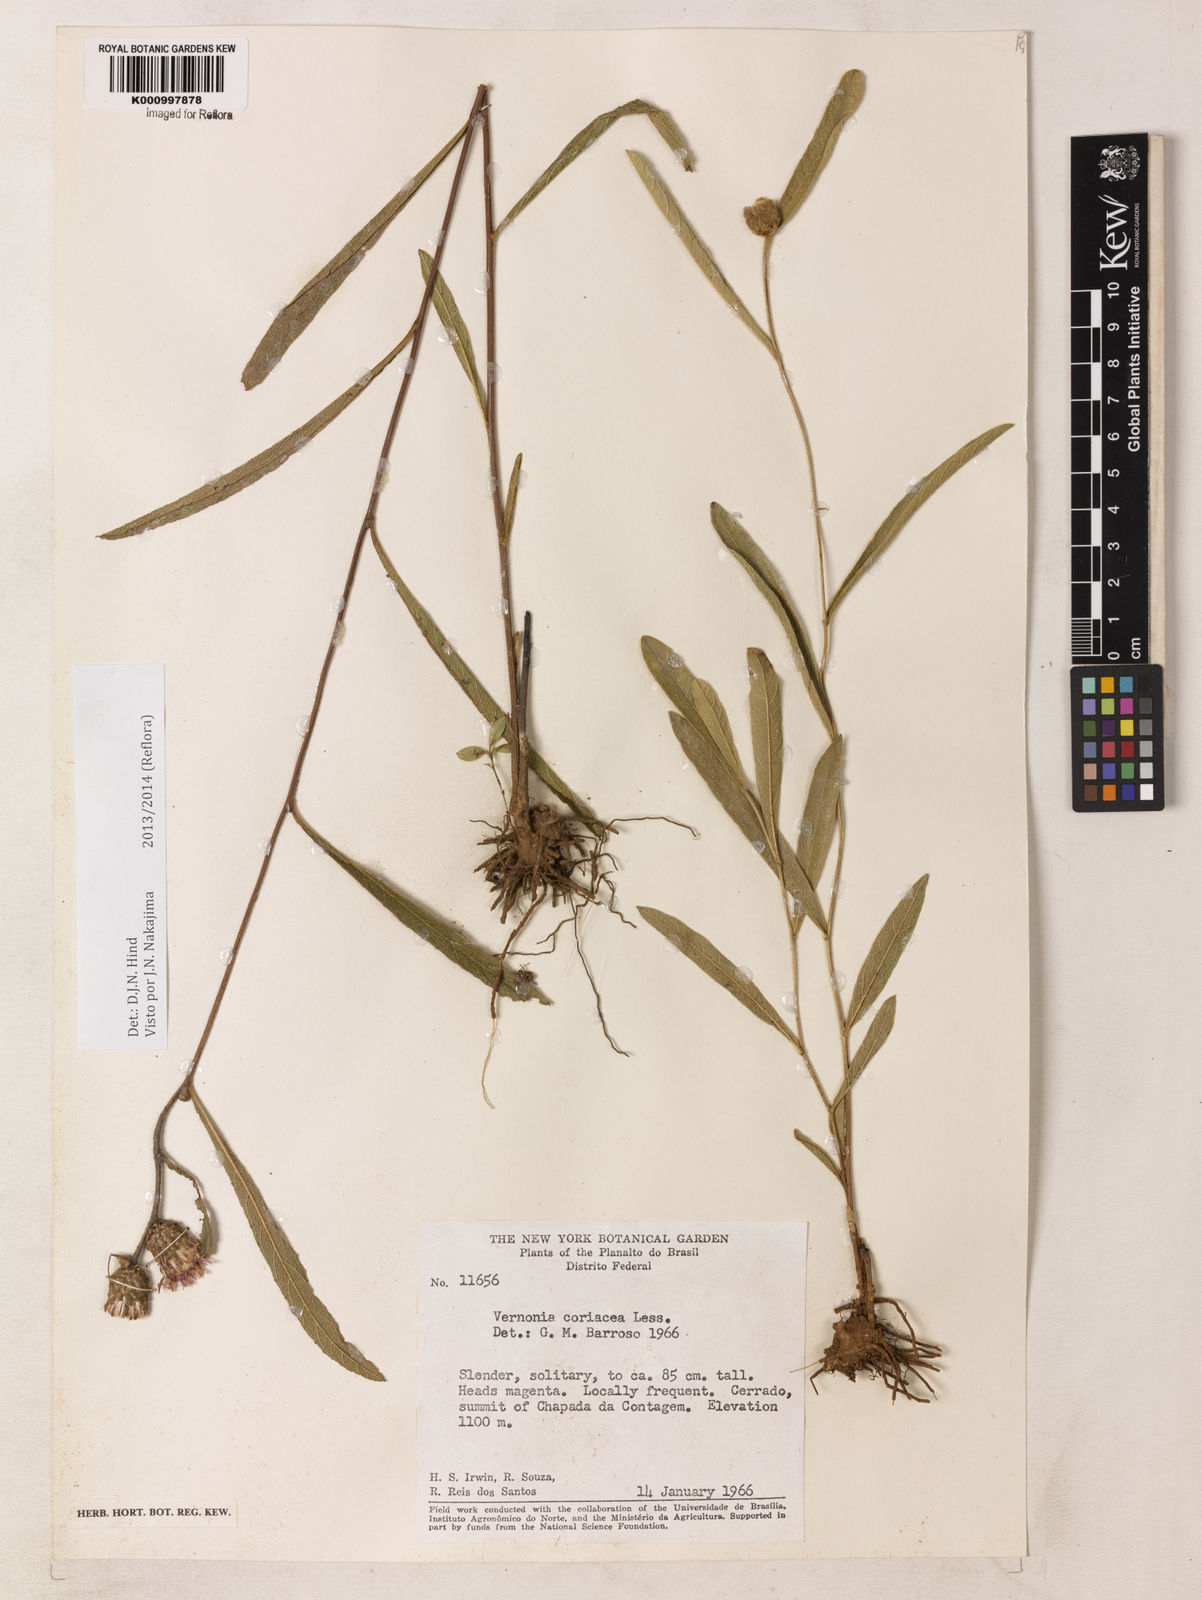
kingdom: Plantae
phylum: Tracheophyta
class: Magnoliopsida
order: Asterales
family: Asteraceae
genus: Lessingianthus
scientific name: Lessingianthus coriaceus
